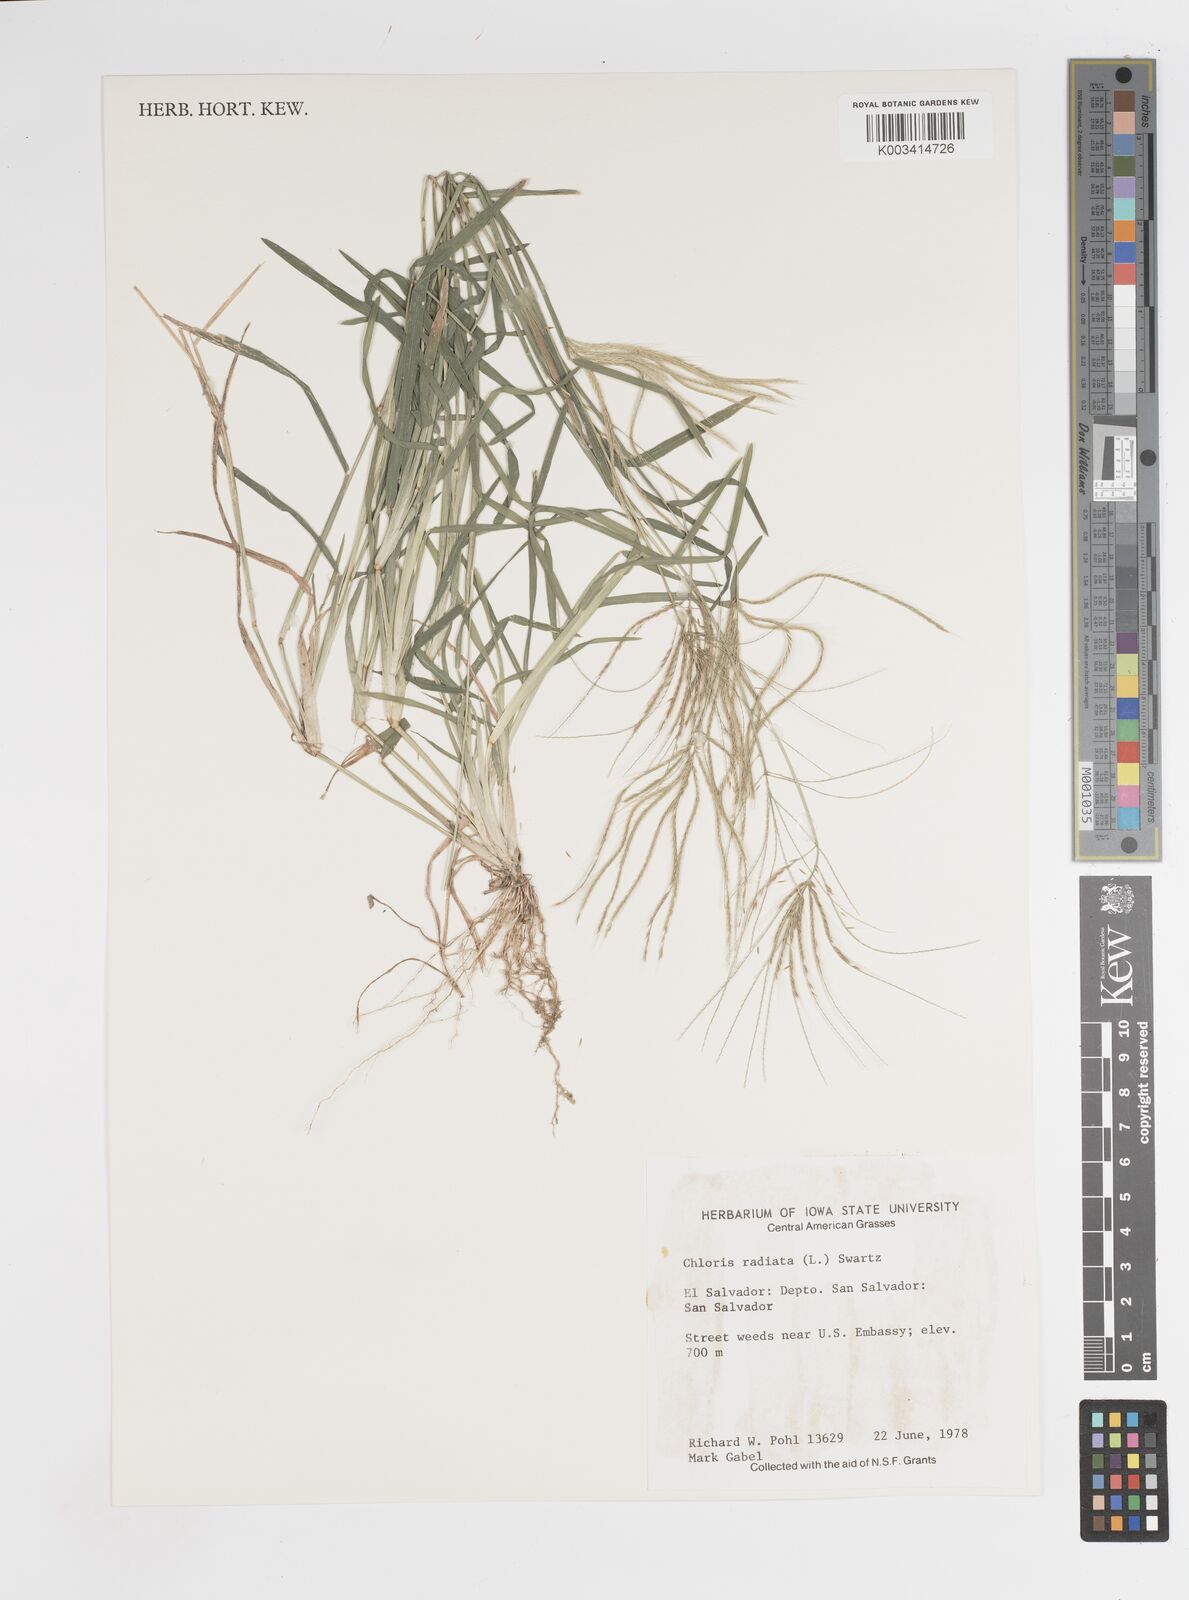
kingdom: Plantae
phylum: Tracheophyta
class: Liliopsida
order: Poales
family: Poaceae
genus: Chloris
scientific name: Chloris radiata
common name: Radiate fingergrass
